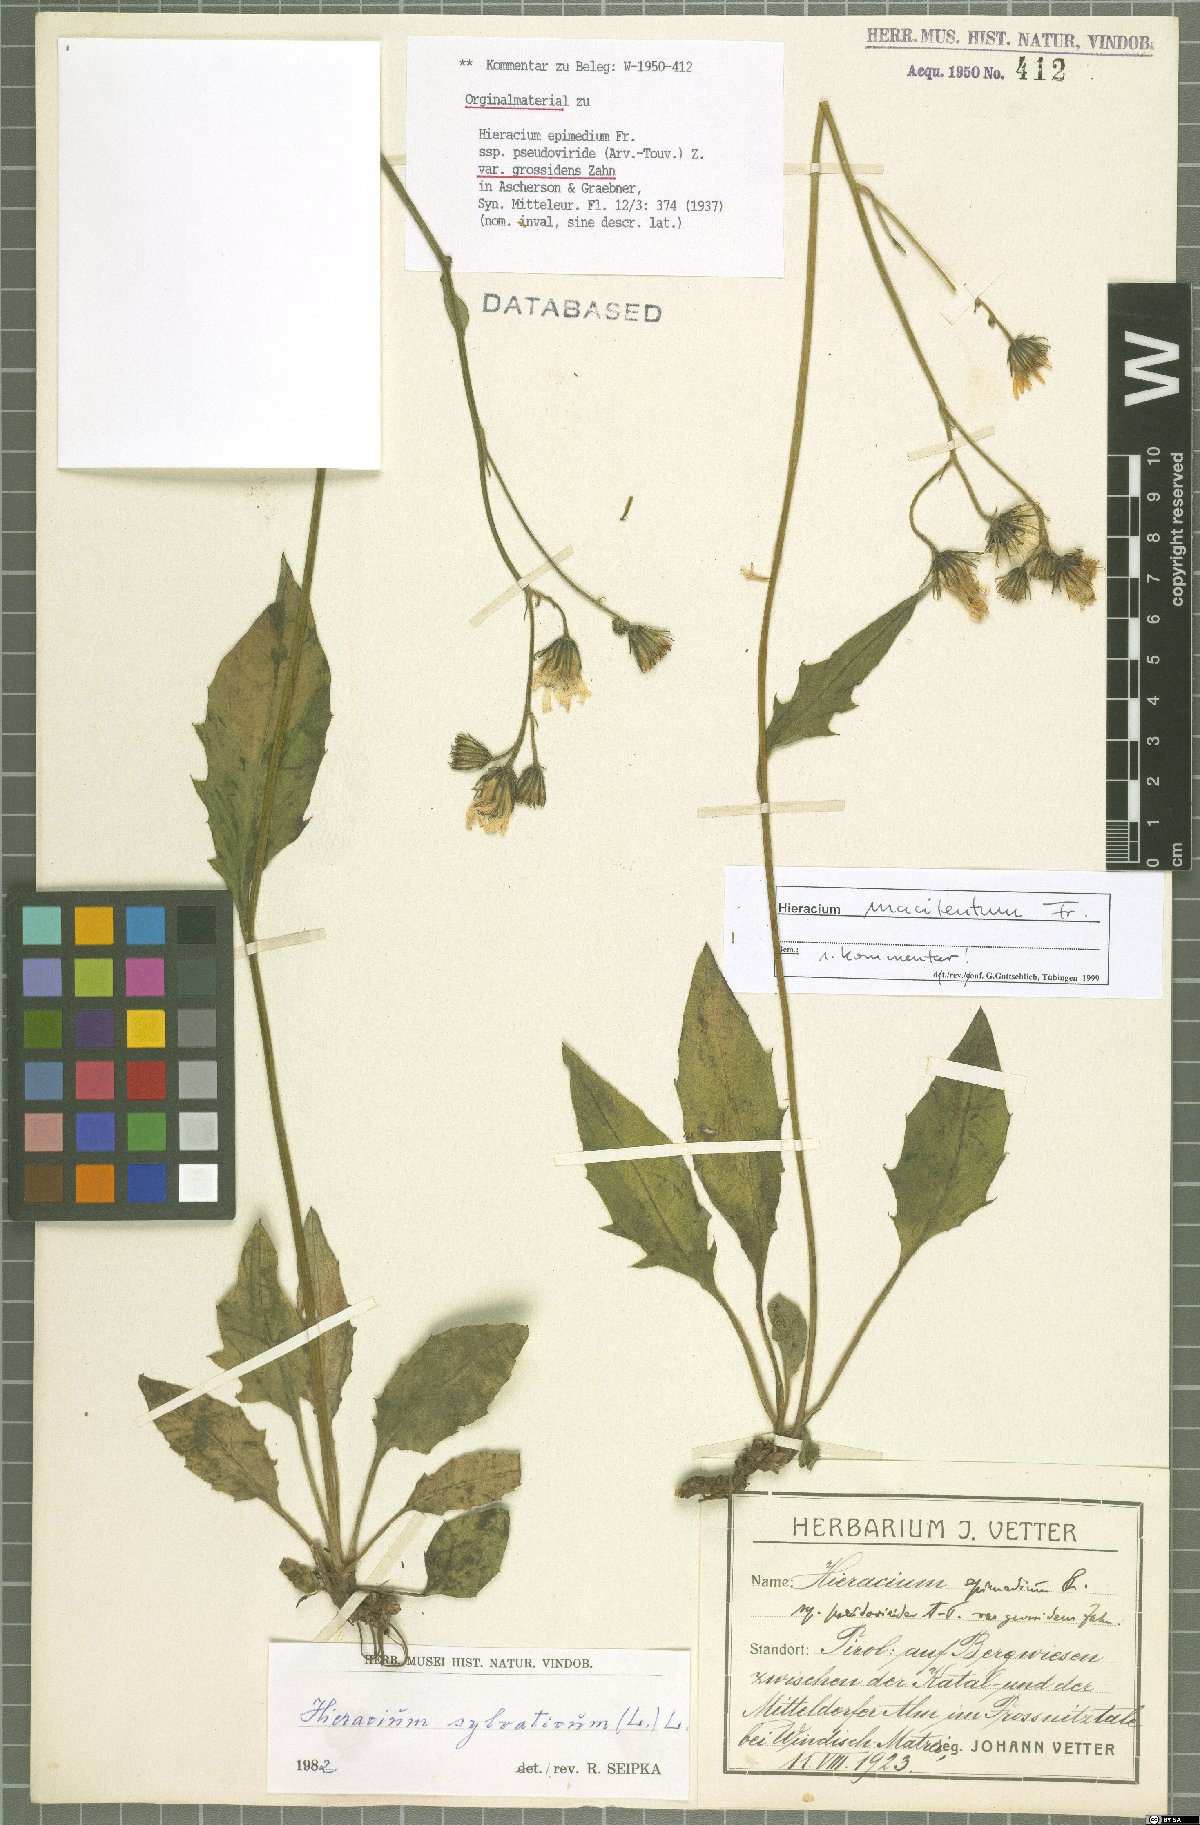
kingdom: Plantae
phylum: Tracheophyta
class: Magnoliopsida
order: Asterales
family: Asteraceae
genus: Hieracium
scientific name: Hieracium froelichianum
